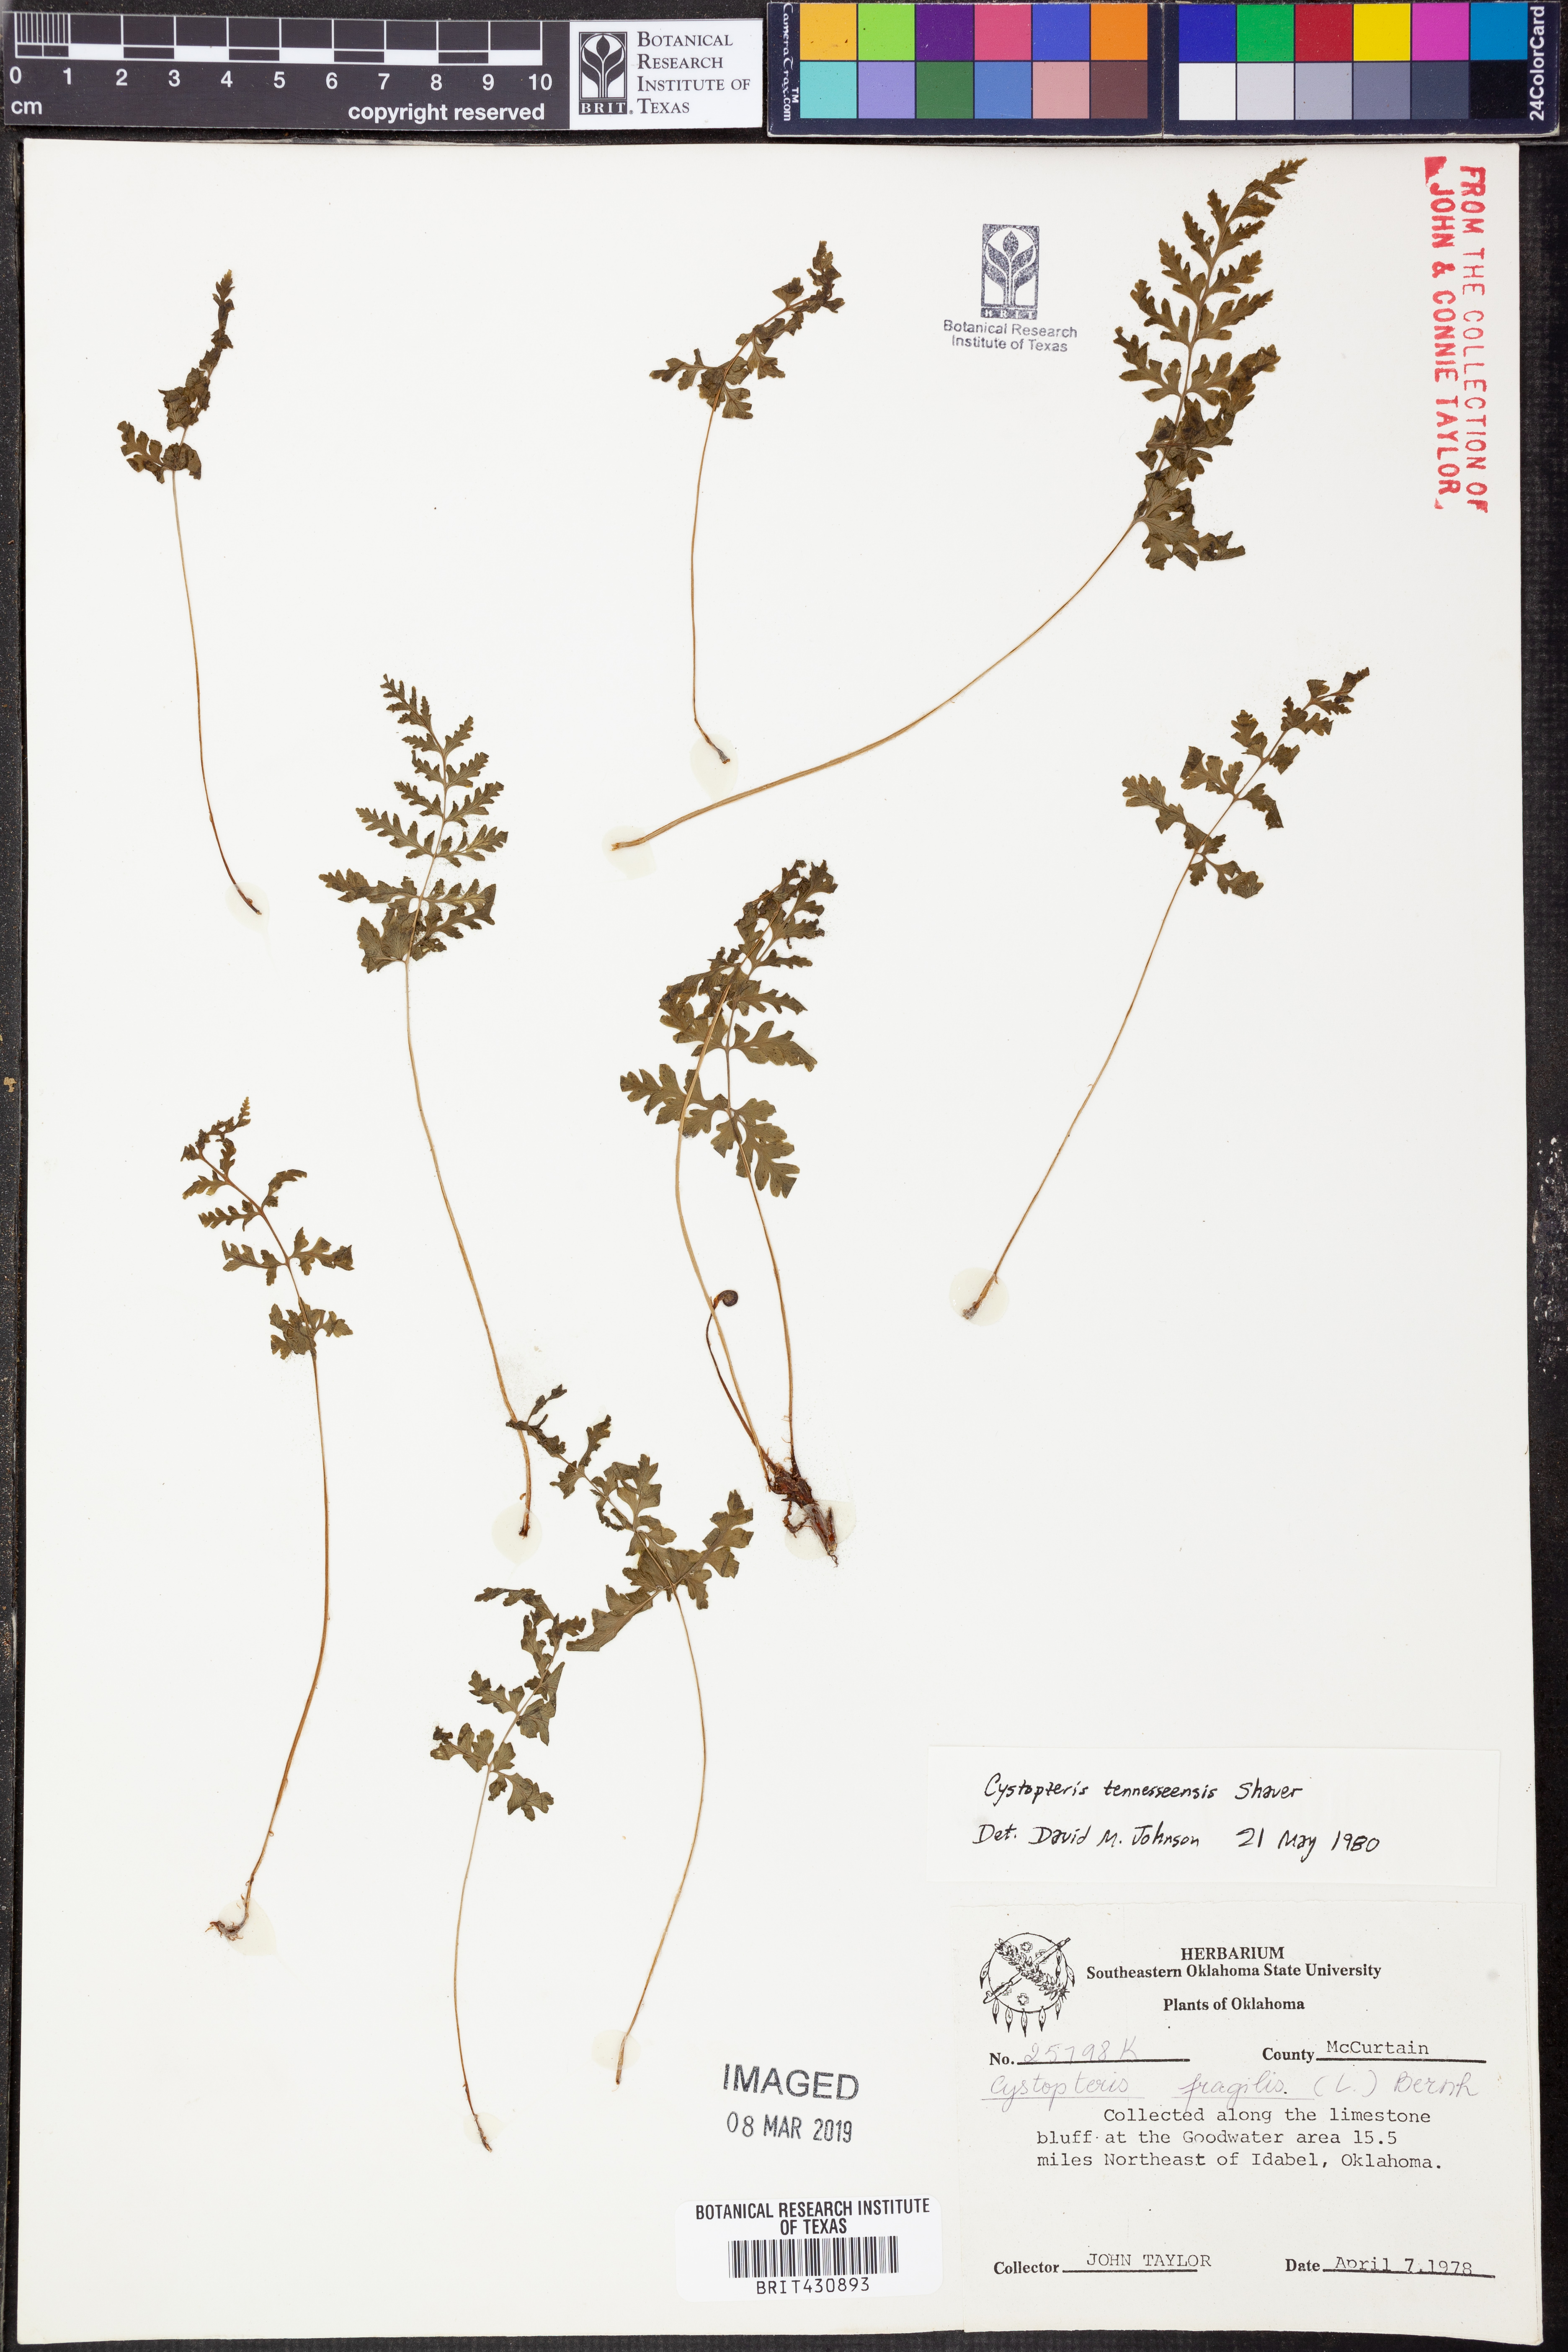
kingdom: Plantae
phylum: Tracheophyta
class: Polypodiopsida
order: Polypodiales
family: Cystopteridaceae
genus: Cystopteris
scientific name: Cystopteris tennesseensis
